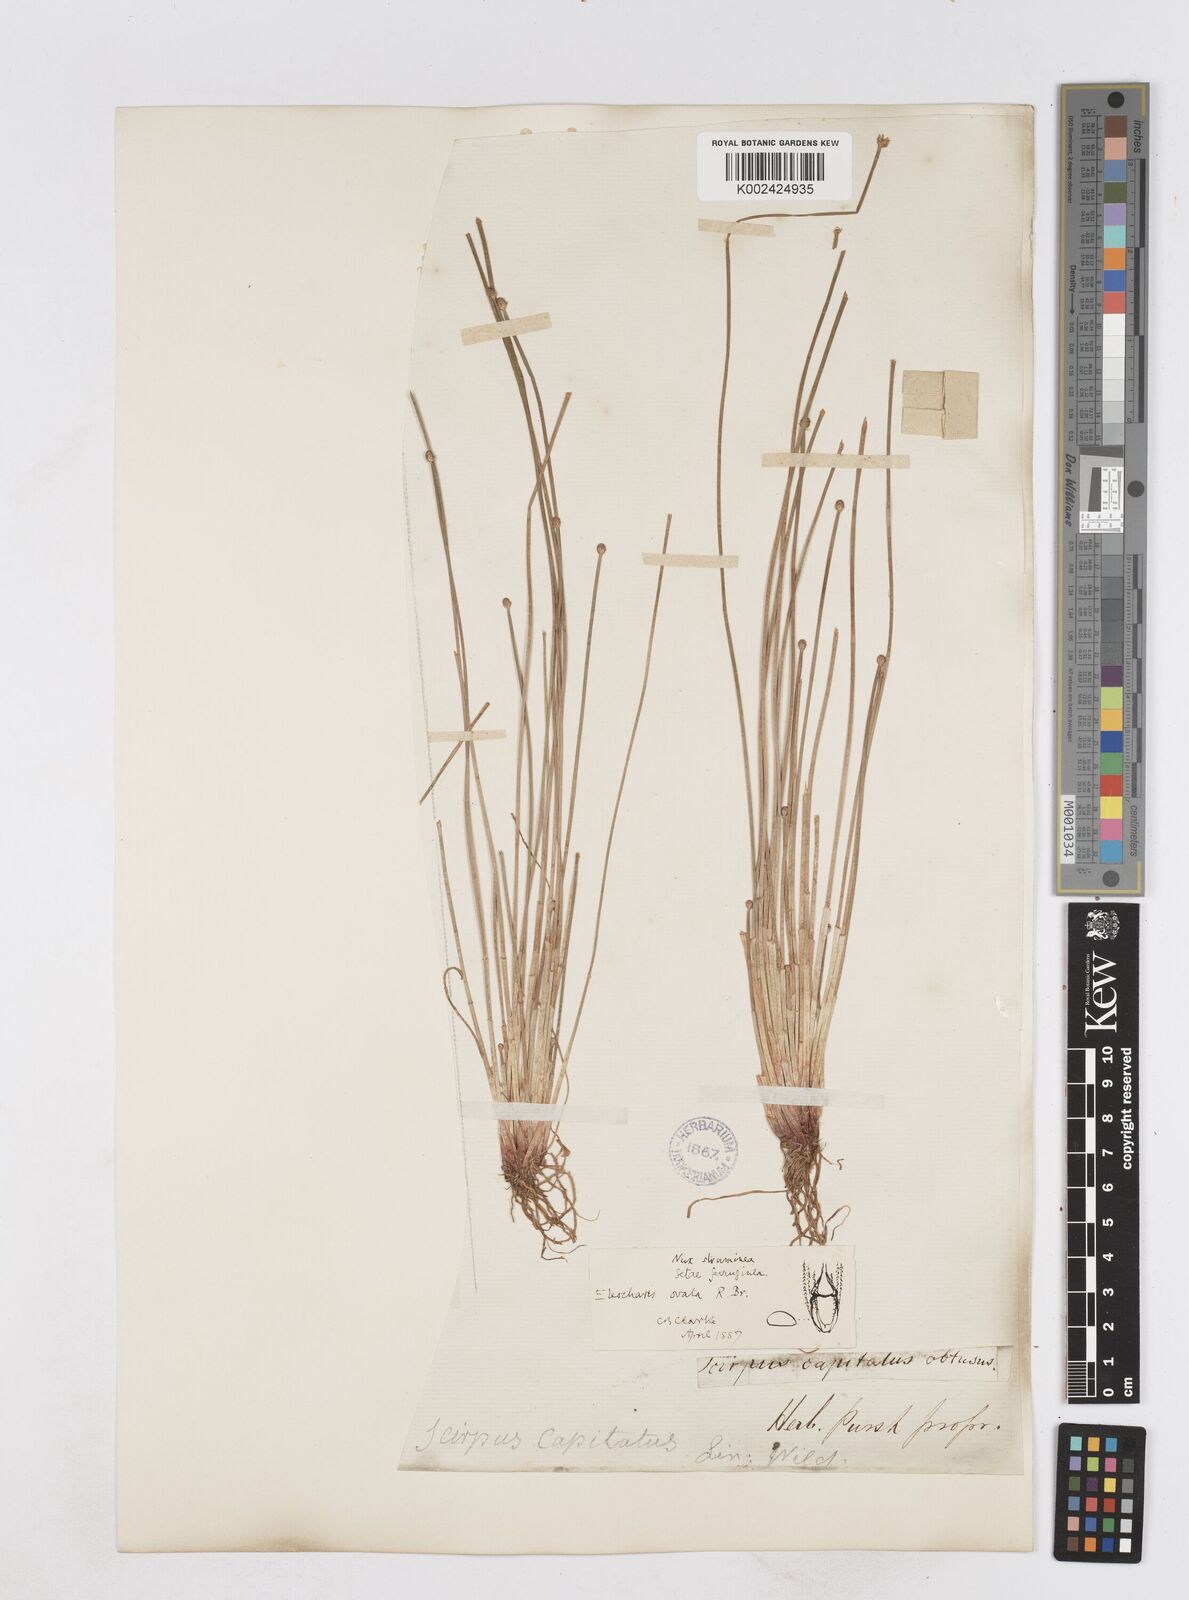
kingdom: Plantae
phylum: Tracheophyta
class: Liliopsida
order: Poales
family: Cyperaceae
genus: Eleocharis
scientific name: Eleocharis ovata
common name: Oval spike-rush
